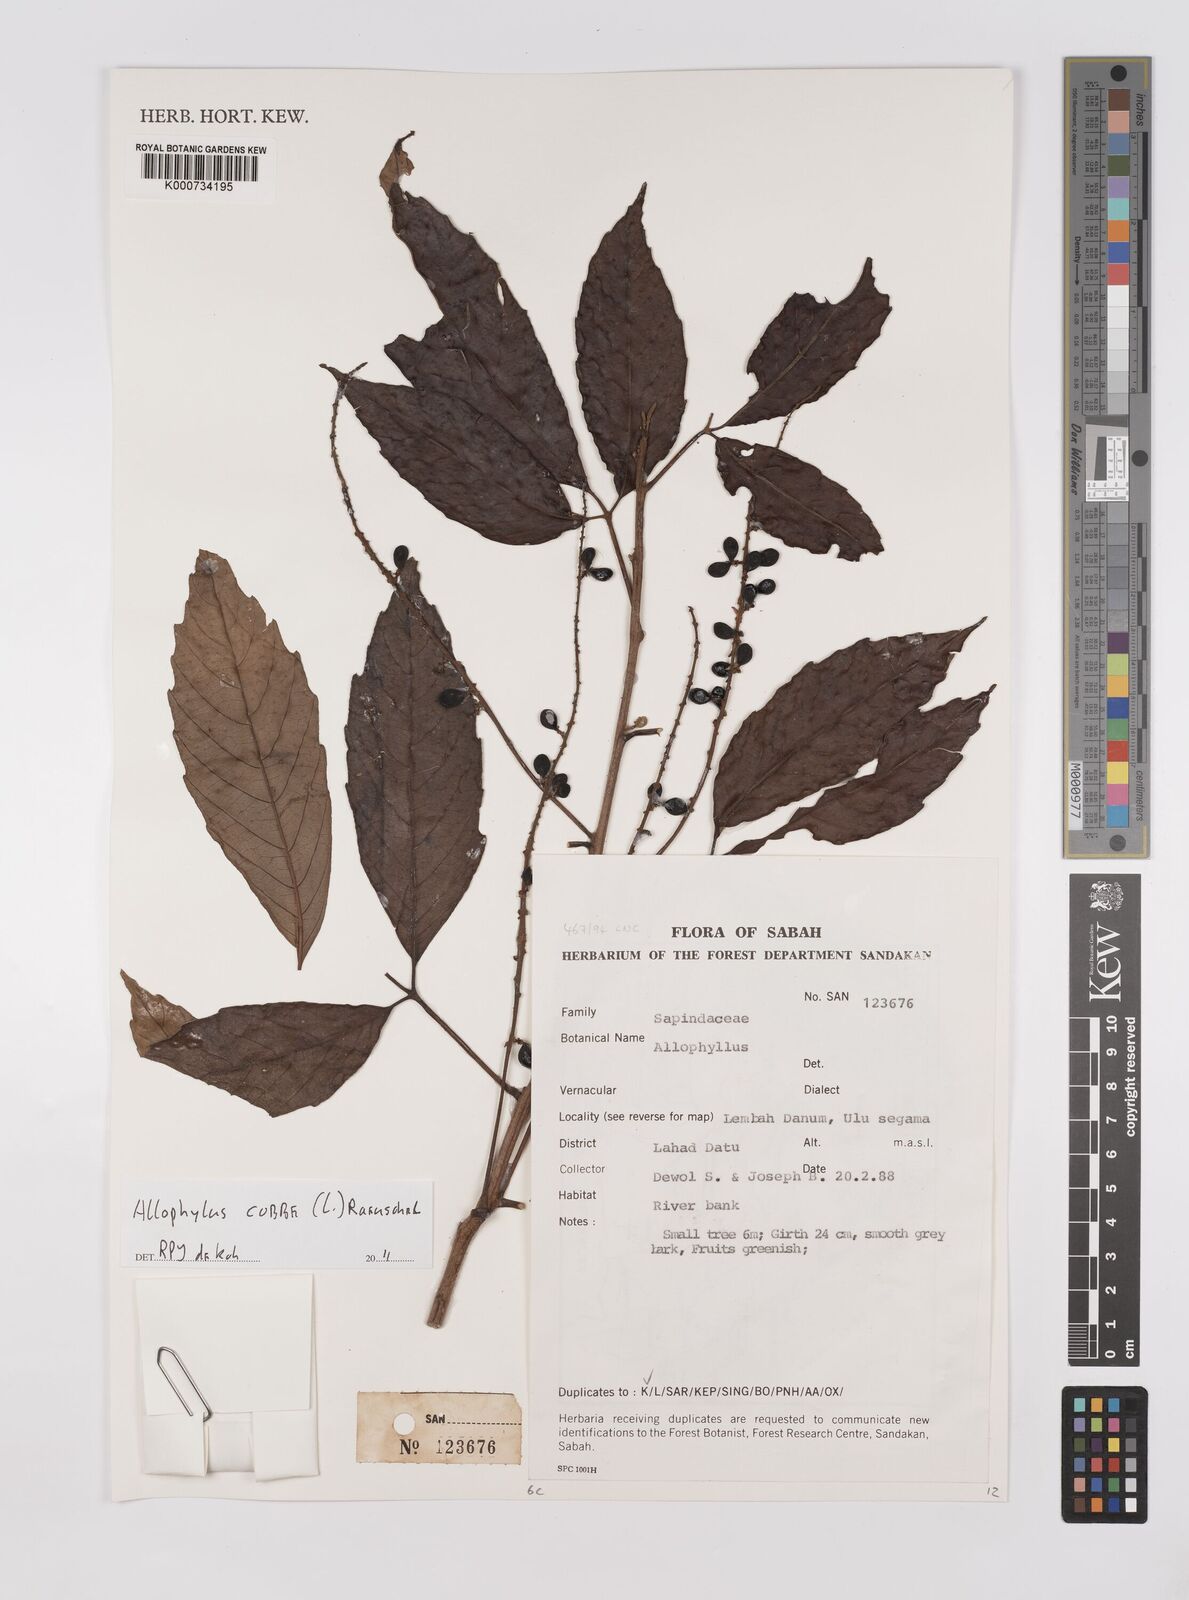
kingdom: Plantae
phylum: Tracheophyta
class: Magnoliopsida
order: Sapindales
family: Sapindaceae
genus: Allophylus
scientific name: Allophylus
